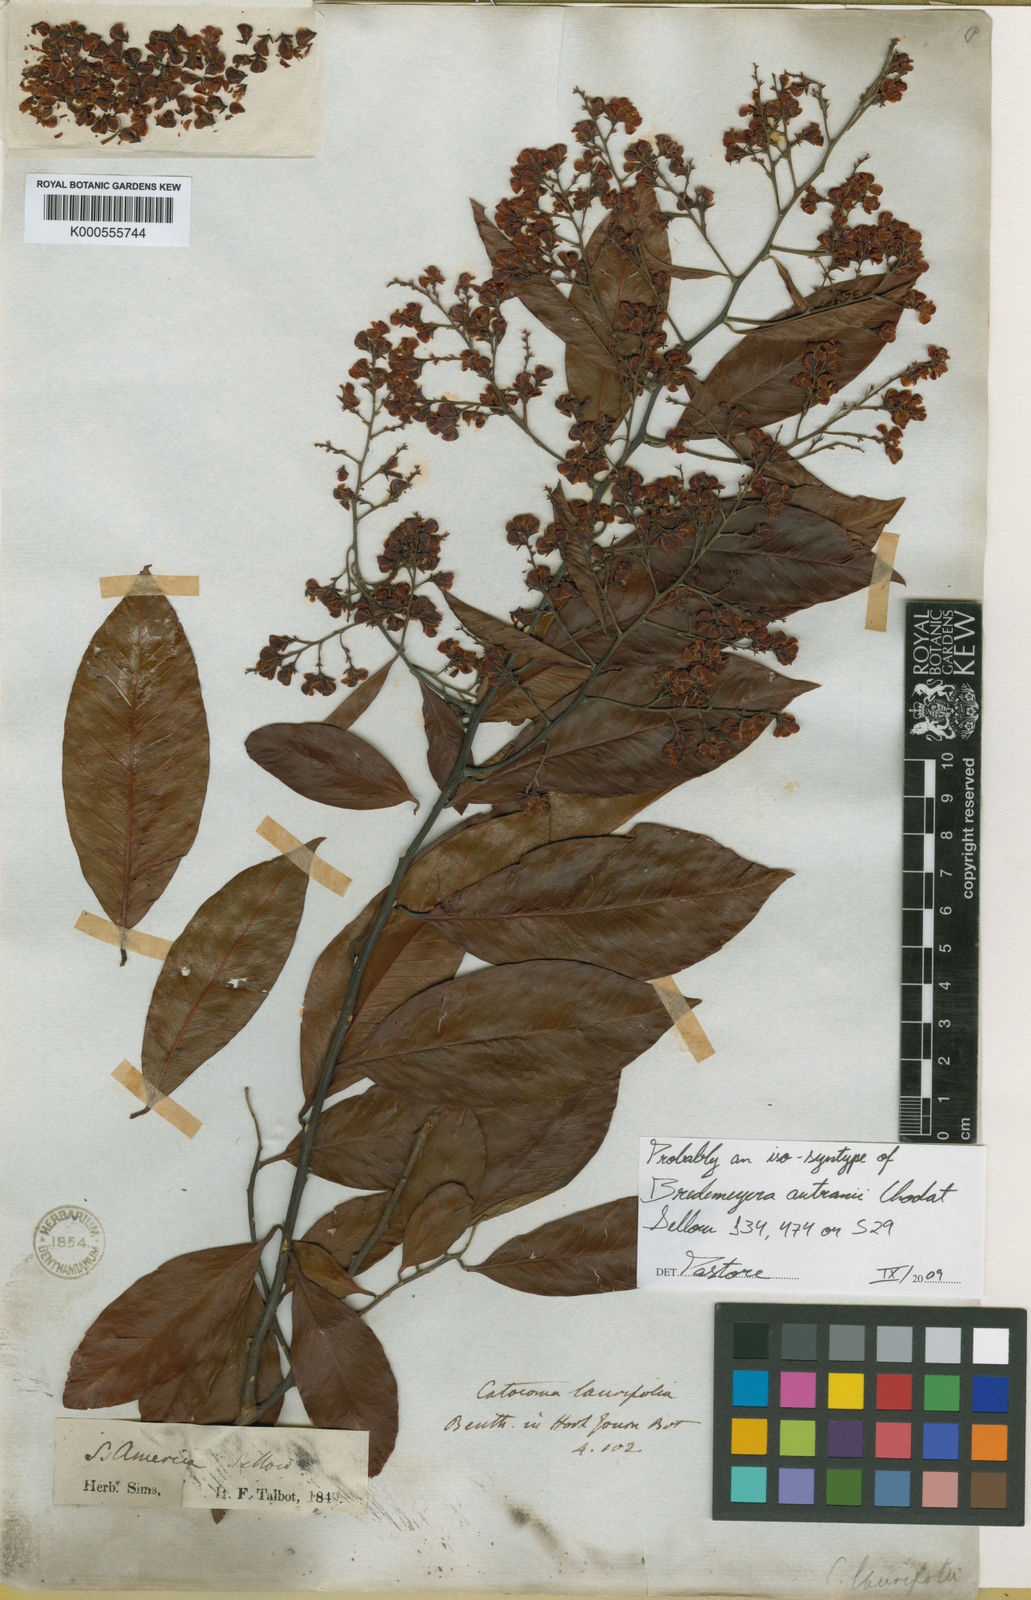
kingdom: Plantae
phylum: Tracheophyta
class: Magnoliopsida
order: Fabales
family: Polygalaceae
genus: Bredemeyera
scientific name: Bredemeyera disperma
